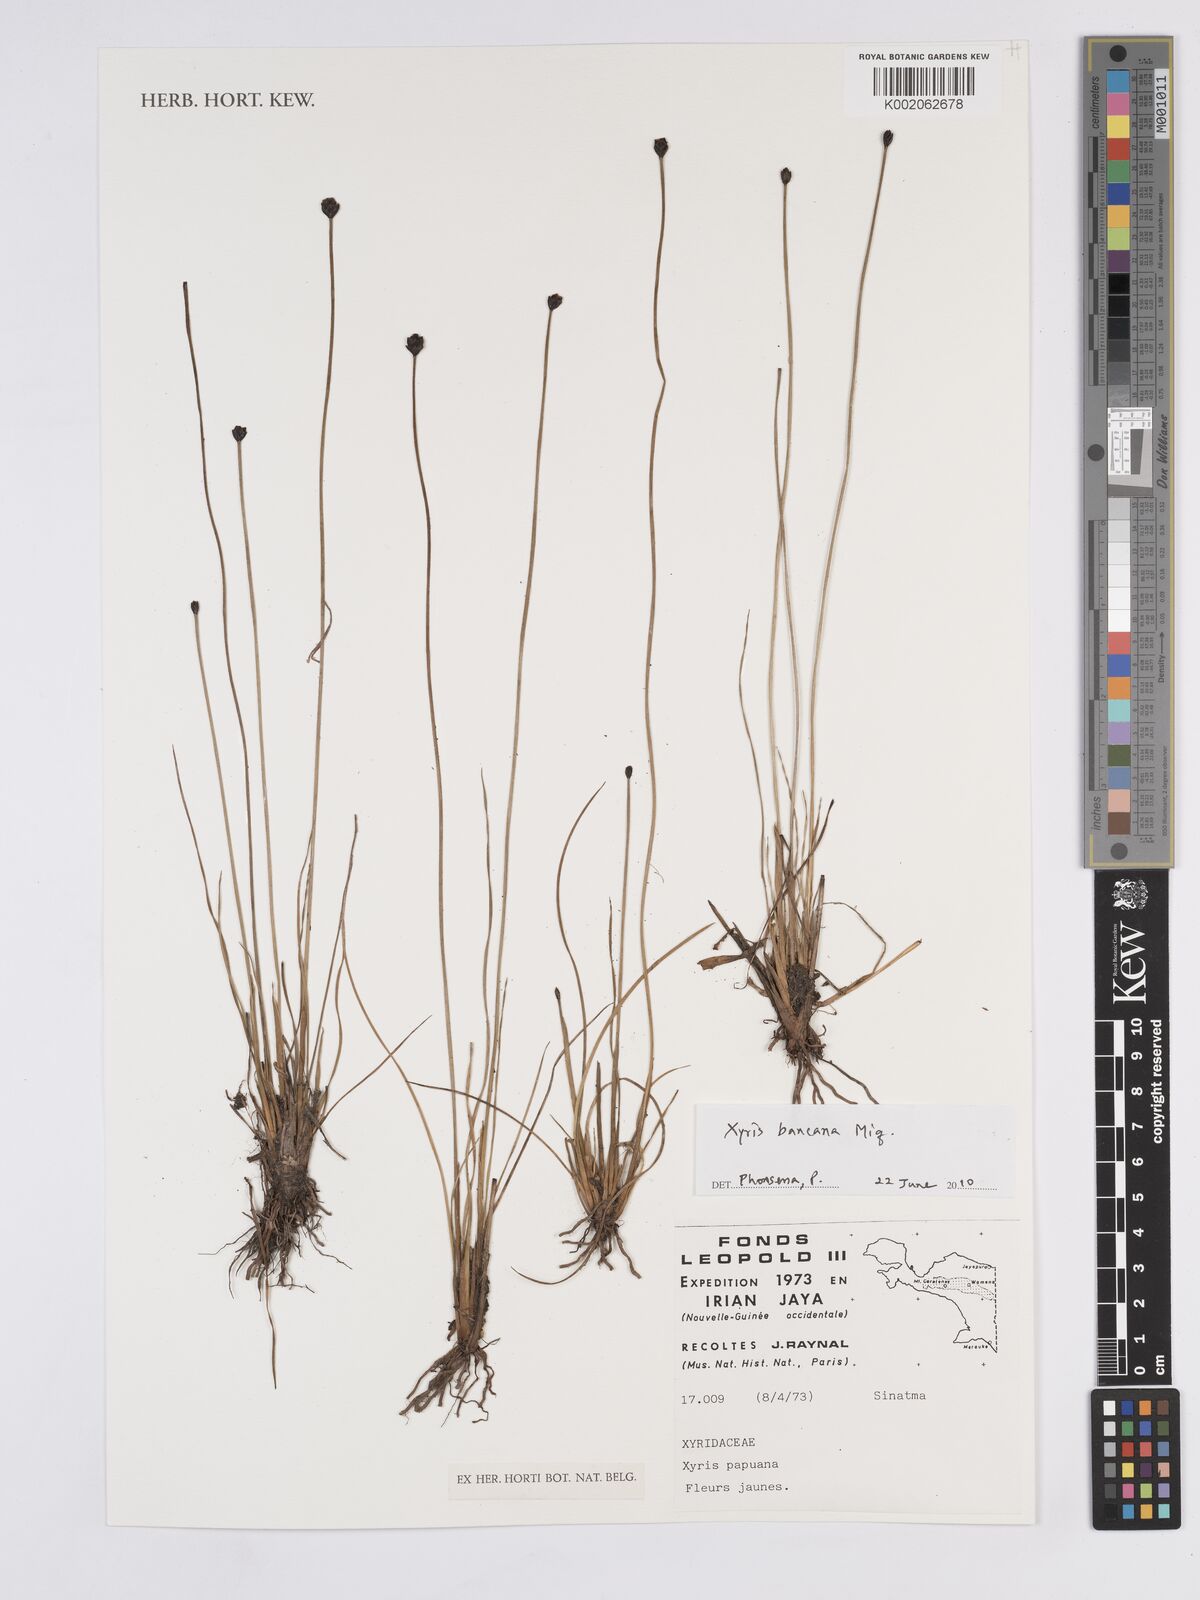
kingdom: Plantae
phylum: Tracheophyta
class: Liliopsida
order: Poales
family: Xyridaceae
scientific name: Xyridaceae
